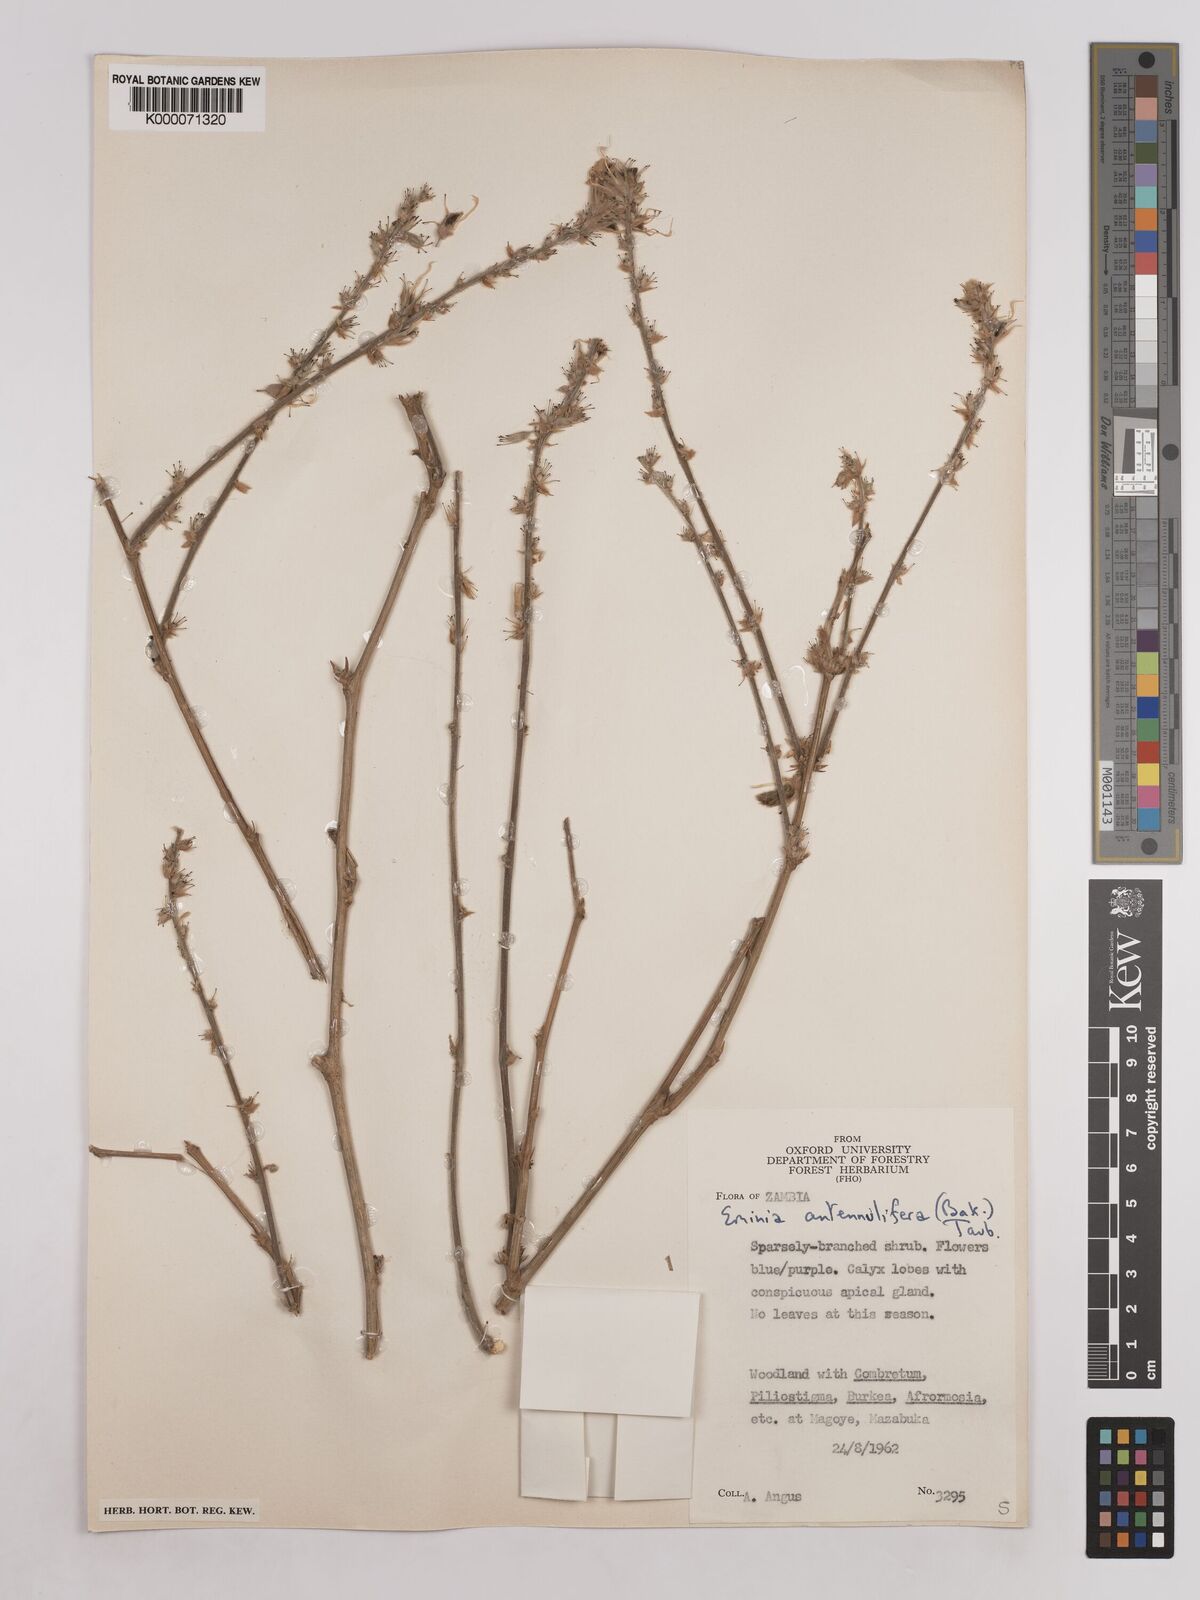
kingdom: Plantae
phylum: Tracheophyta
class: Magnoliopsida
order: Fabales
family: Fabaceae
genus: Eminia
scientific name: Eminia antennulifera
